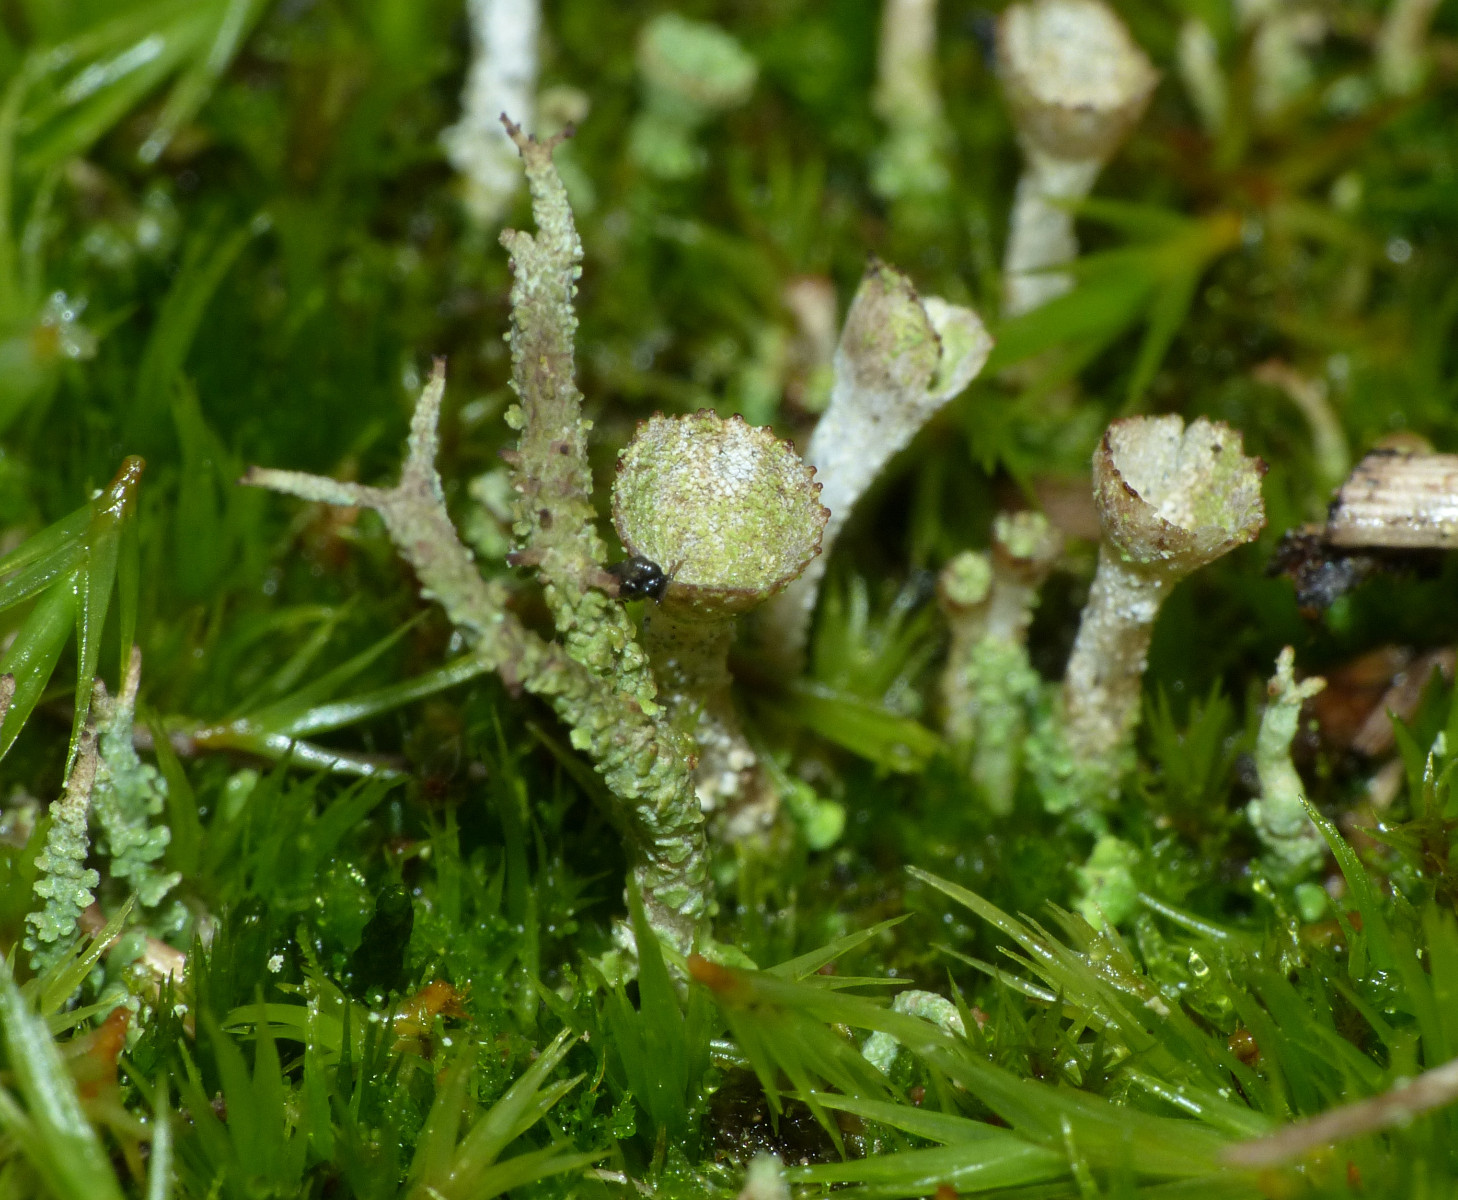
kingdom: Fungi
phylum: Ascomycota
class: Lecanoromycetes
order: Lecanorales
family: Cladoniaceae
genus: Cladonia
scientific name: Cladonia
